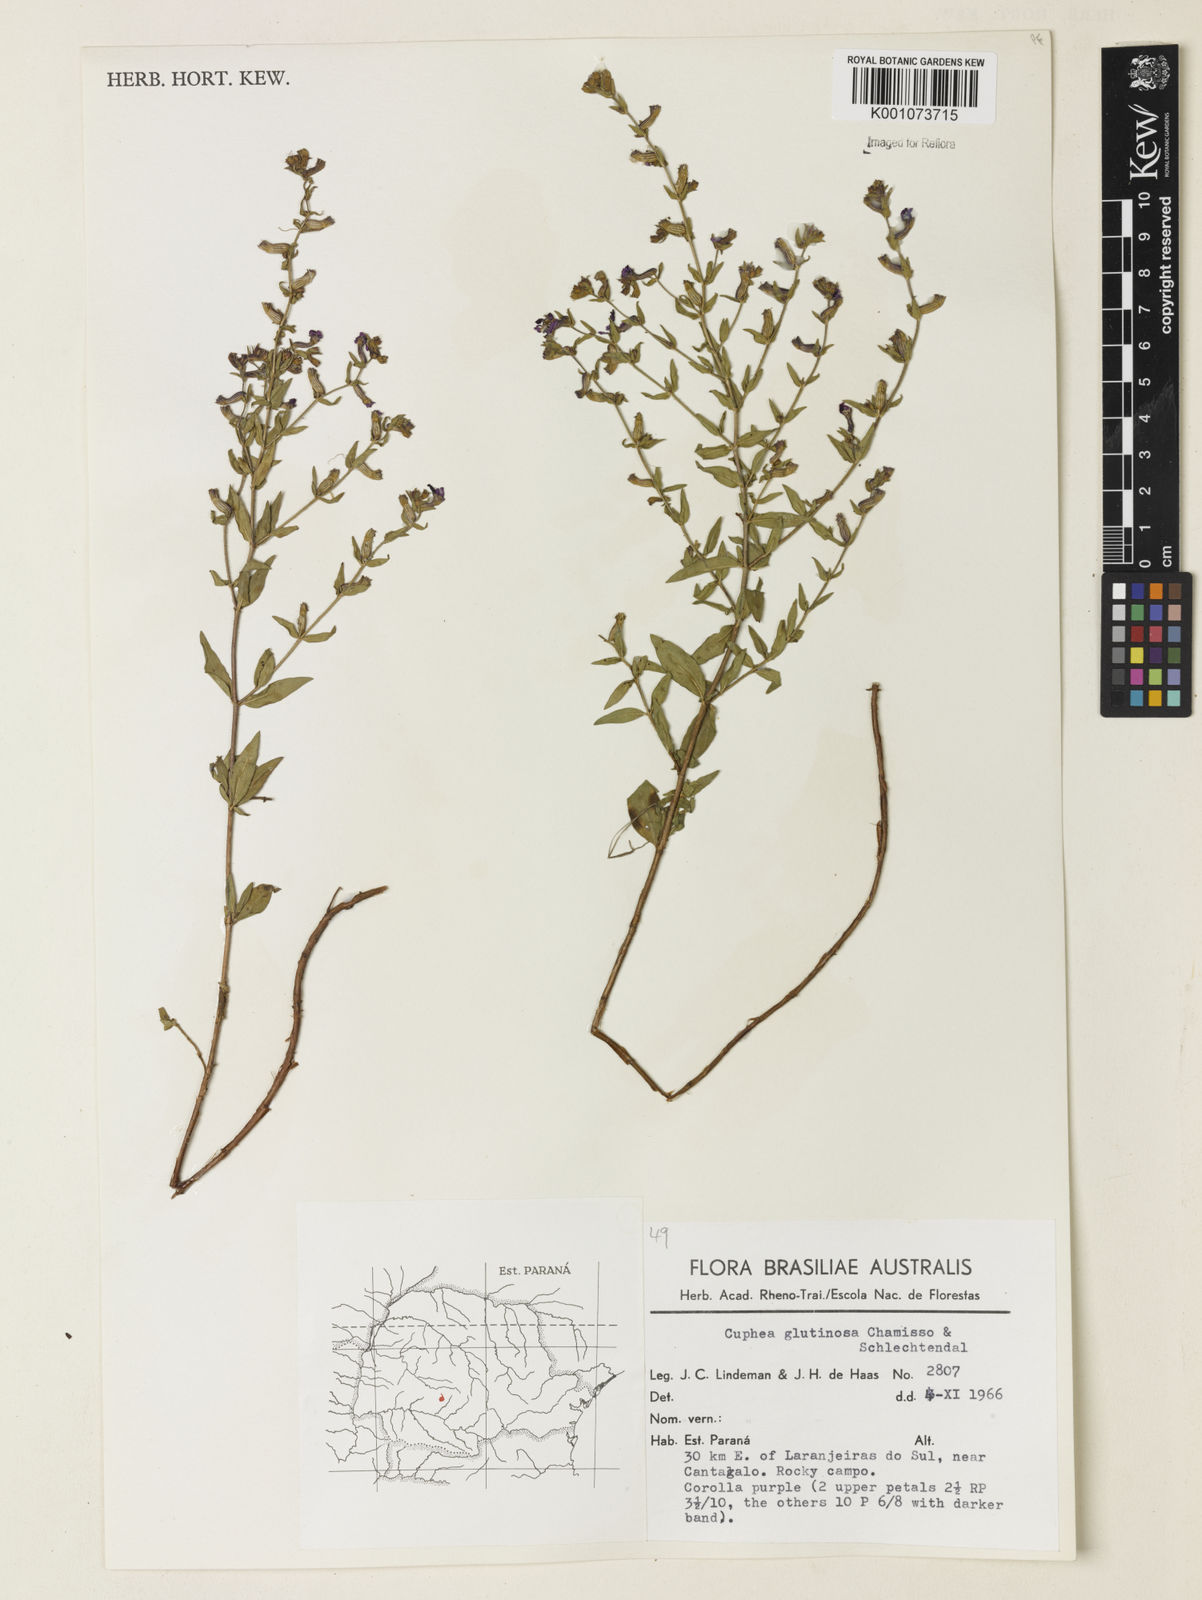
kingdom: Plantae
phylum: Tracheophyta
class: Magnoliopsida
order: Myrtales
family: Lythraceae
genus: Cuphea
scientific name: Cuphea glutinosa
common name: Sticky waxweed
